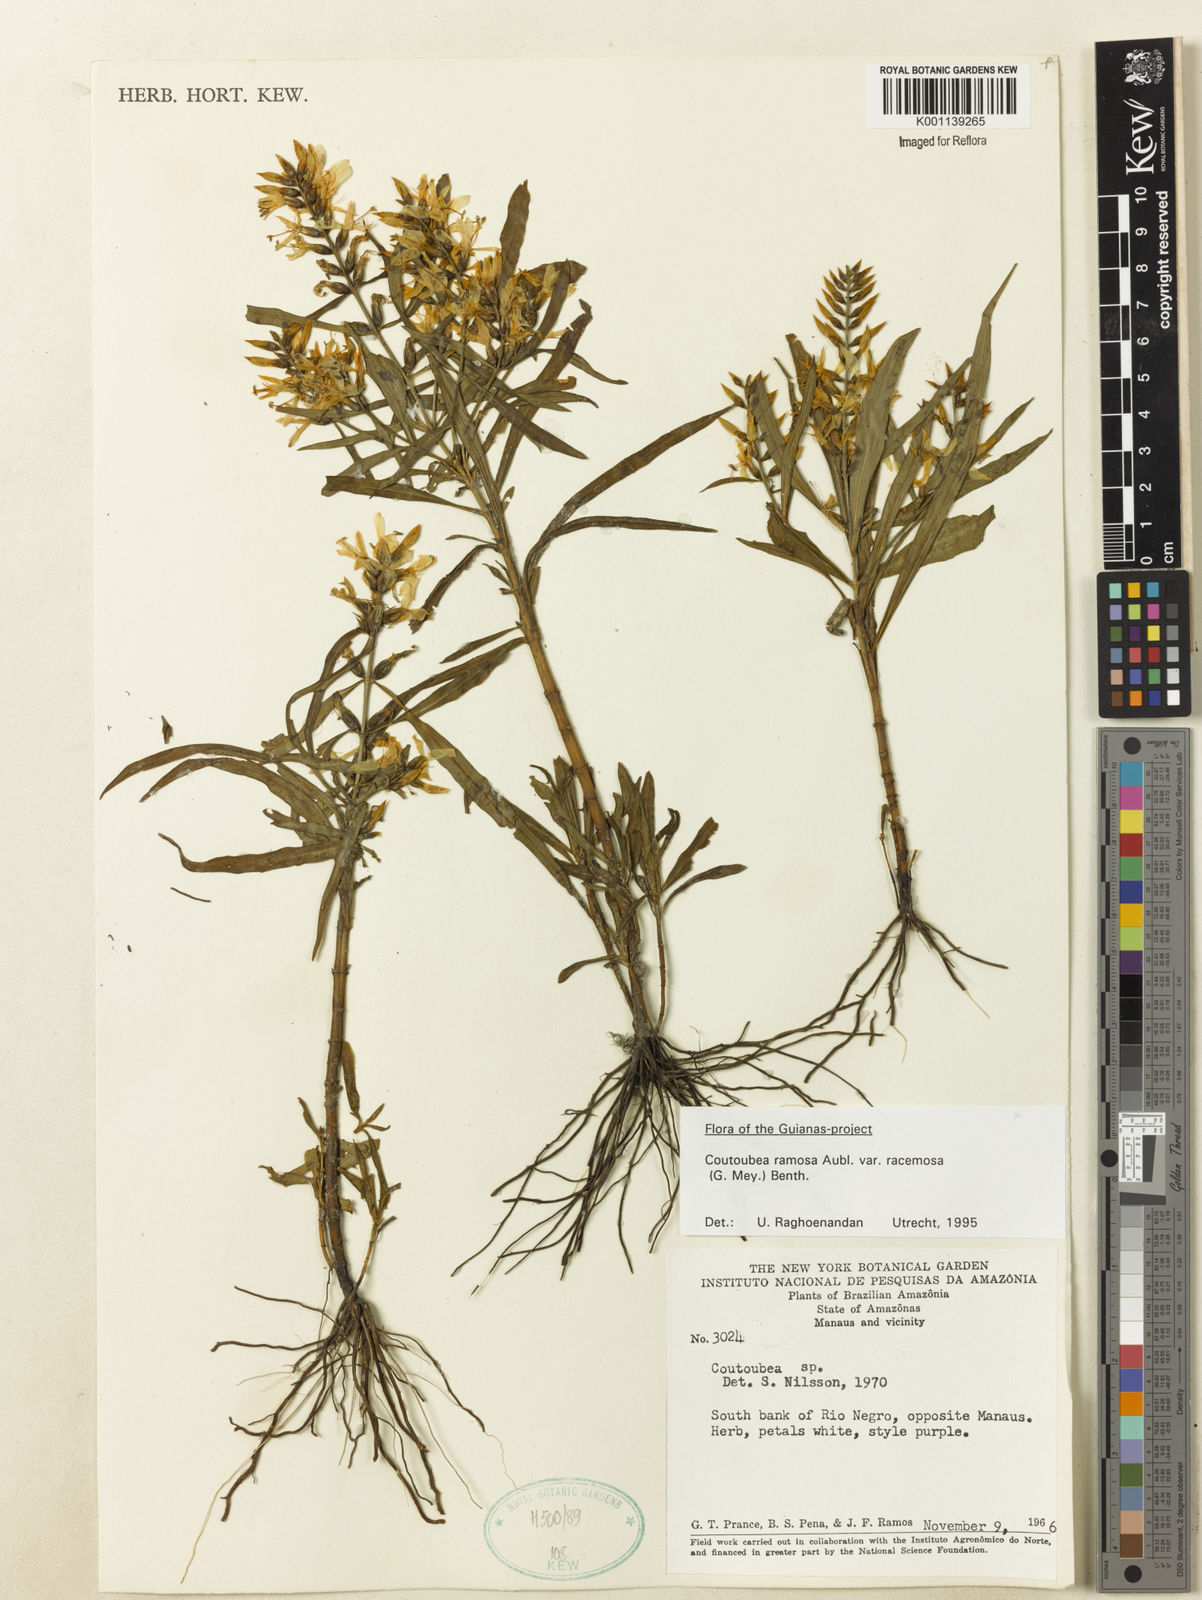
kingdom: Plantae
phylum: Tracheophyta
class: Magnoliopsida
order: Gentianales
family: Gentianaceae
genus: Coutoubea
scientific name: Coutoubea ramosa
